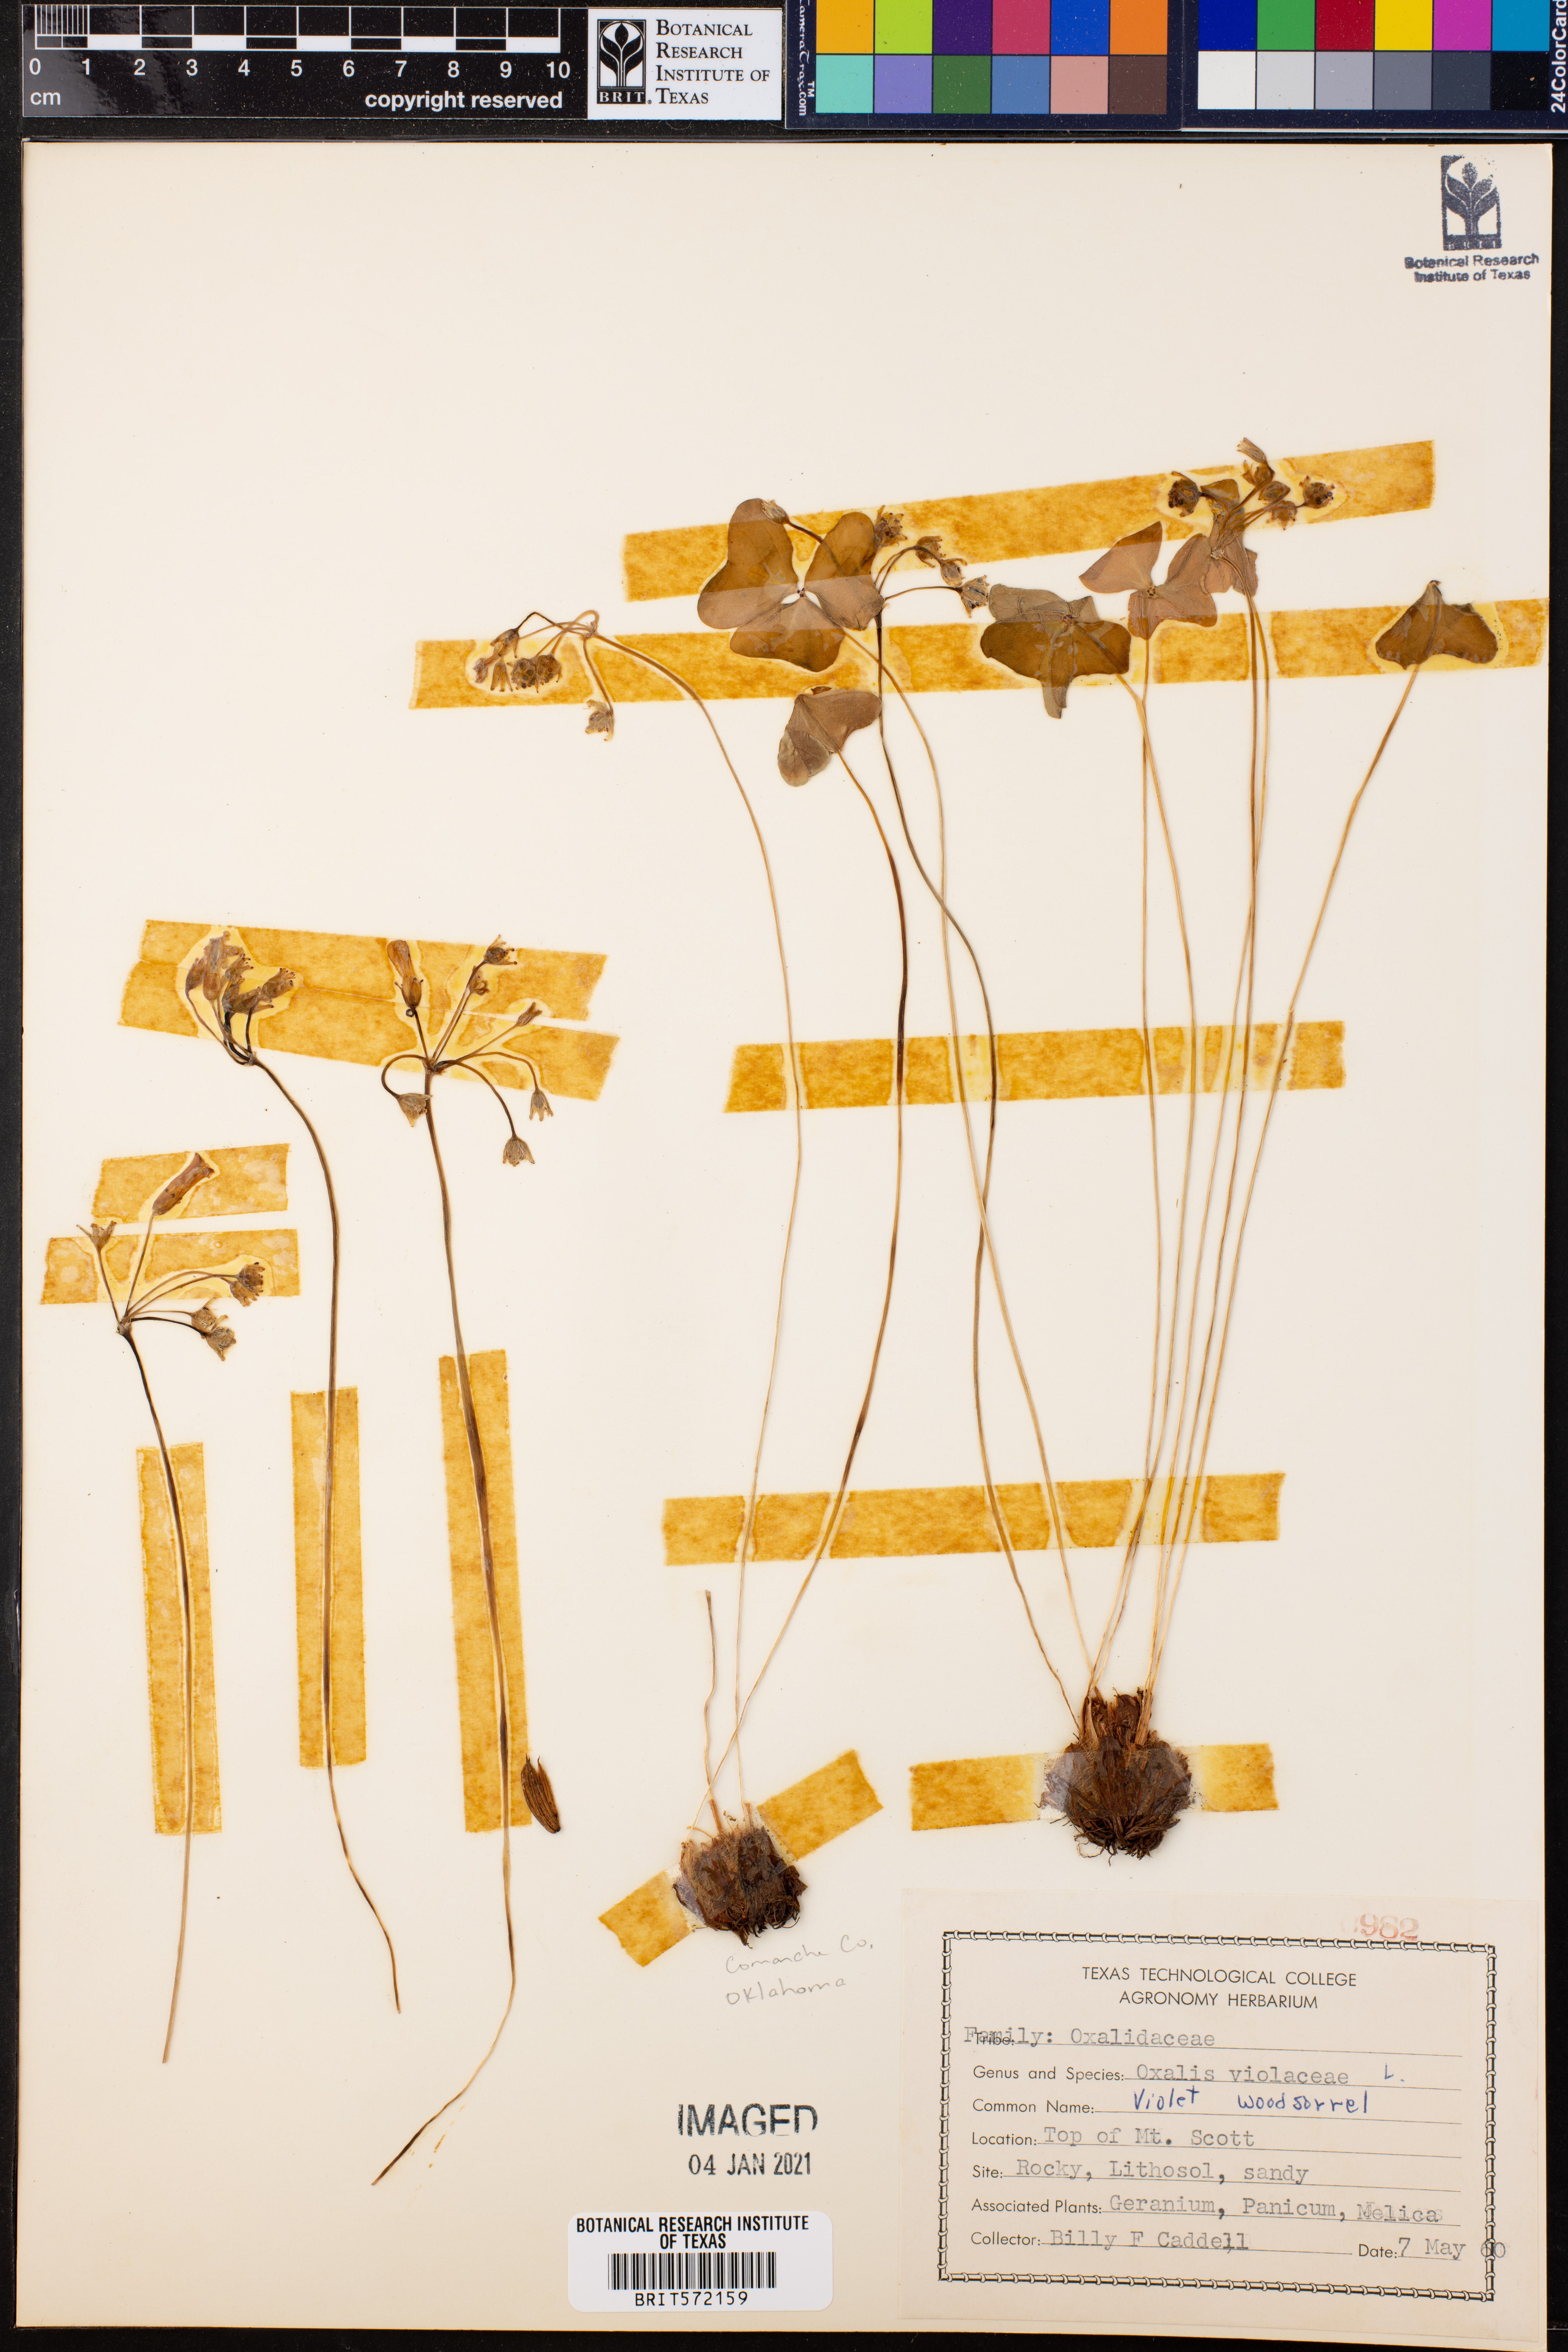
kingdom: Plantae
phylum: Tracheophyta
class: Magnoliopsida
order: Oxalidales
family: Oxalidaceae
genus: Oxalis
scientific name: Oxalis violacea
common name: Violet wood-sorrel
